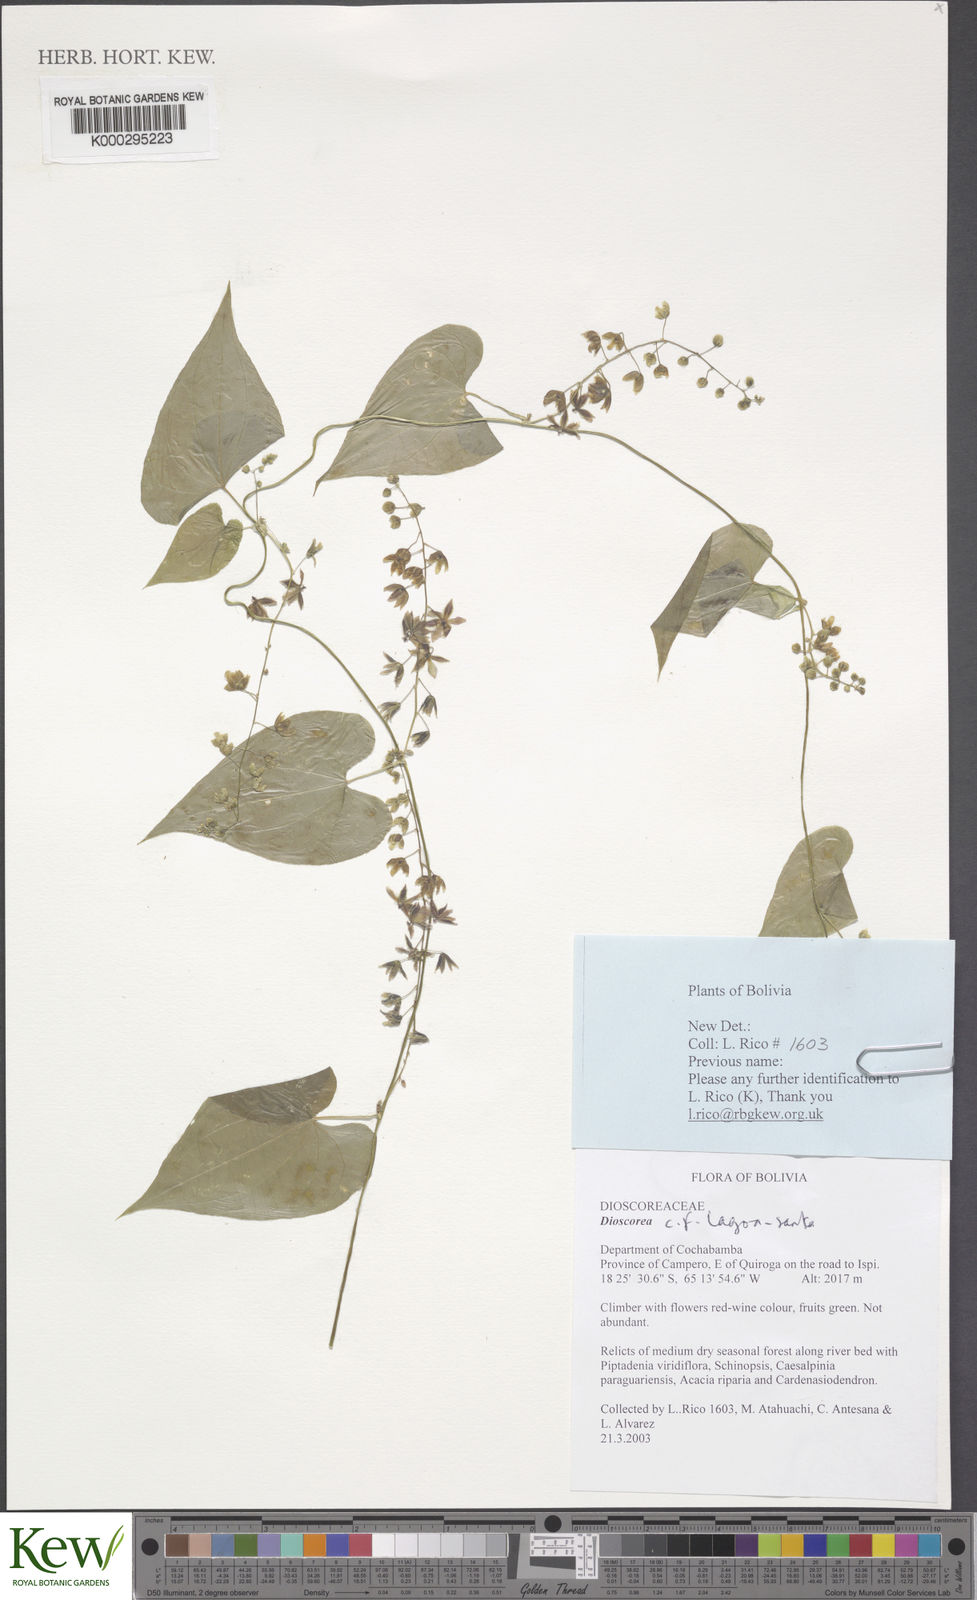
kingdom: Plantae
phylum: Tracheophyta
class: Liliopsida
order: Dioscoreales
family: Dioscoreaceae
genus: Dioscorea
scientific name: Dioscorea cienegensis
